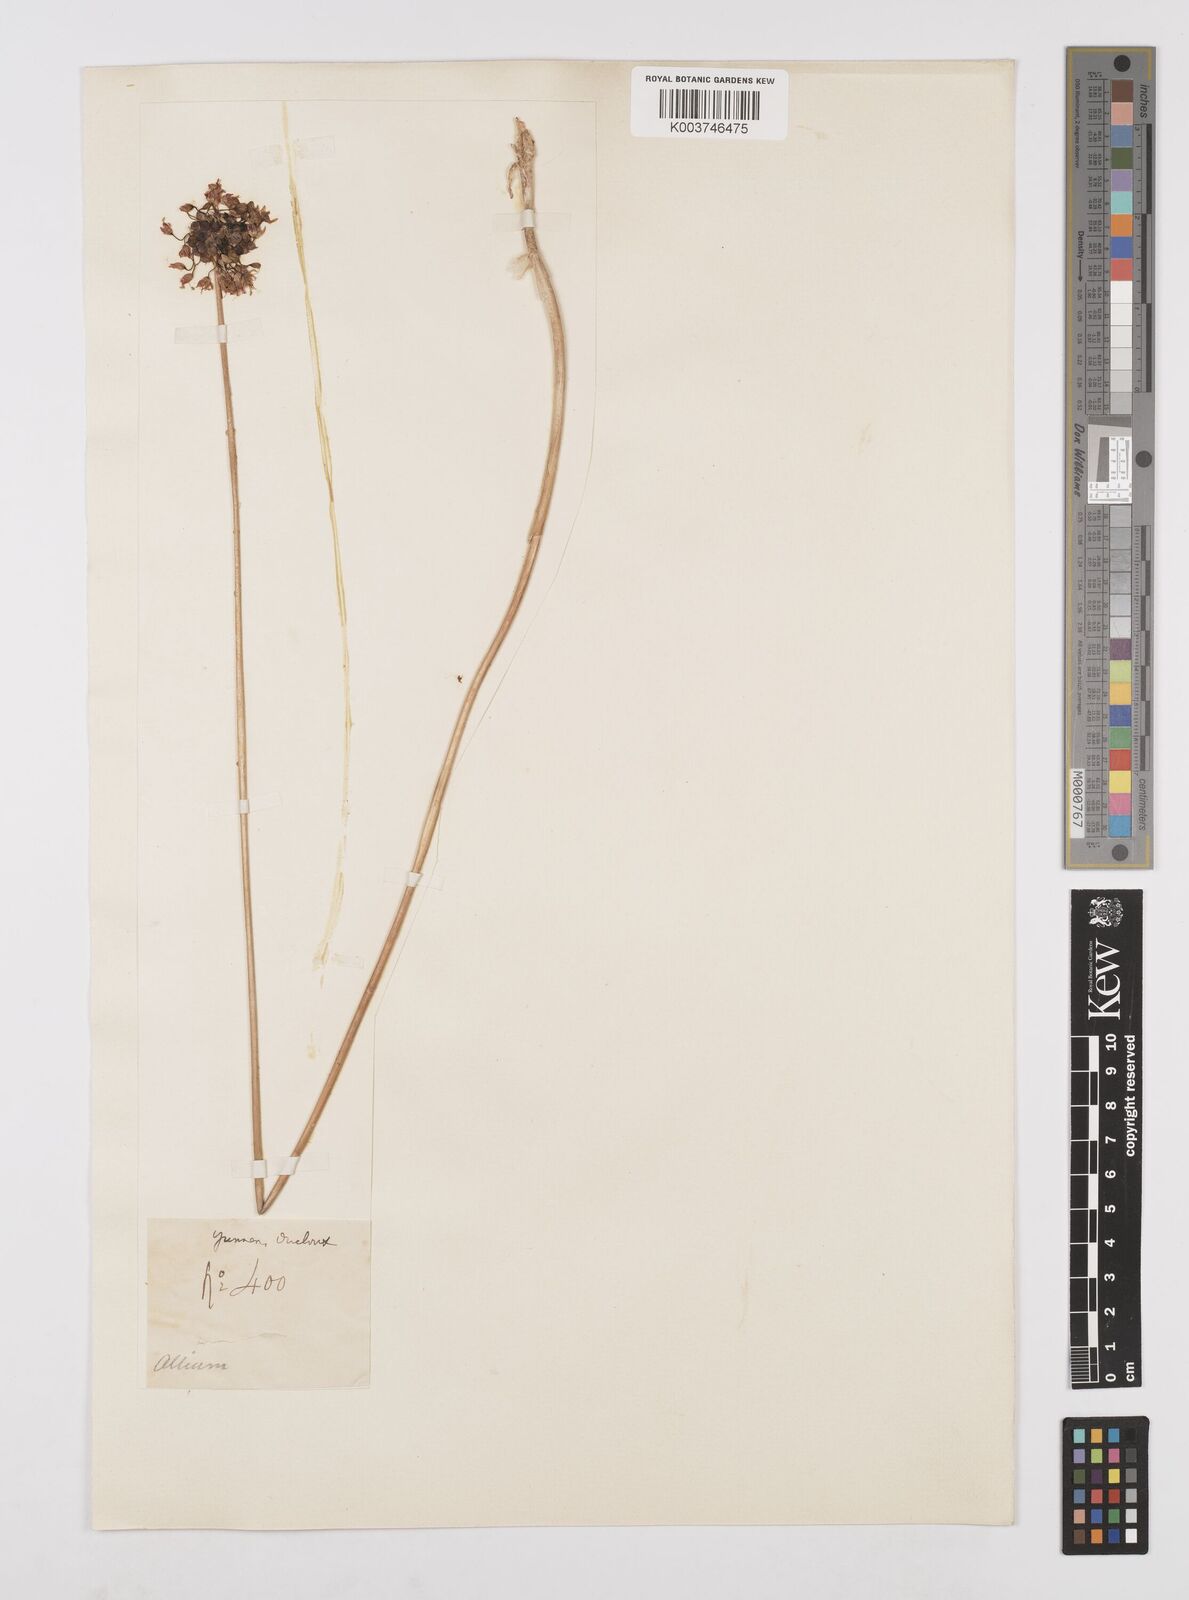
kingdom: Plantae
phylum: Tracheophyta
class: Liliopsida
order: Asparagales
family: Amaryllidaceae
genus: Allium
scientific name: Allium macrostemon
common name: Chinese garlic
